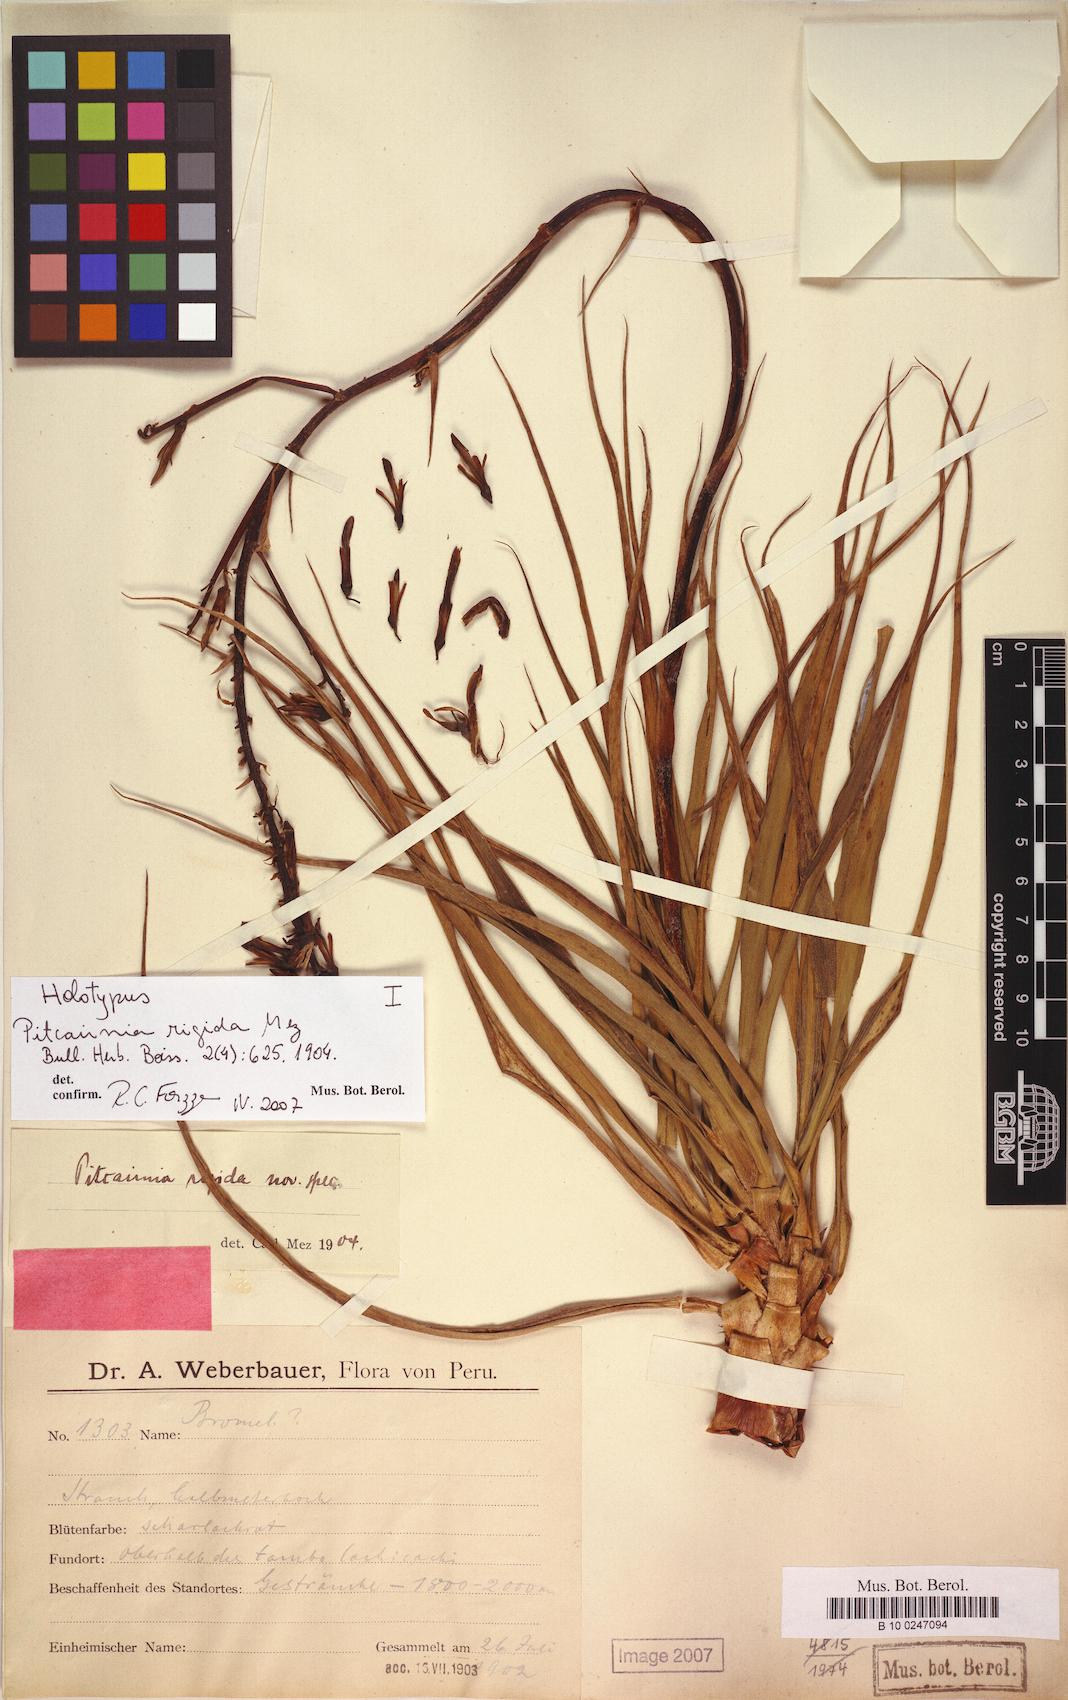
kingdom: Plantae
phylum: Tracheophyta
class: Liliopsida
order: Poales
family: Bromeliaceae
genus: Pitcairnia
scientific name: Pitcairnia rigida
